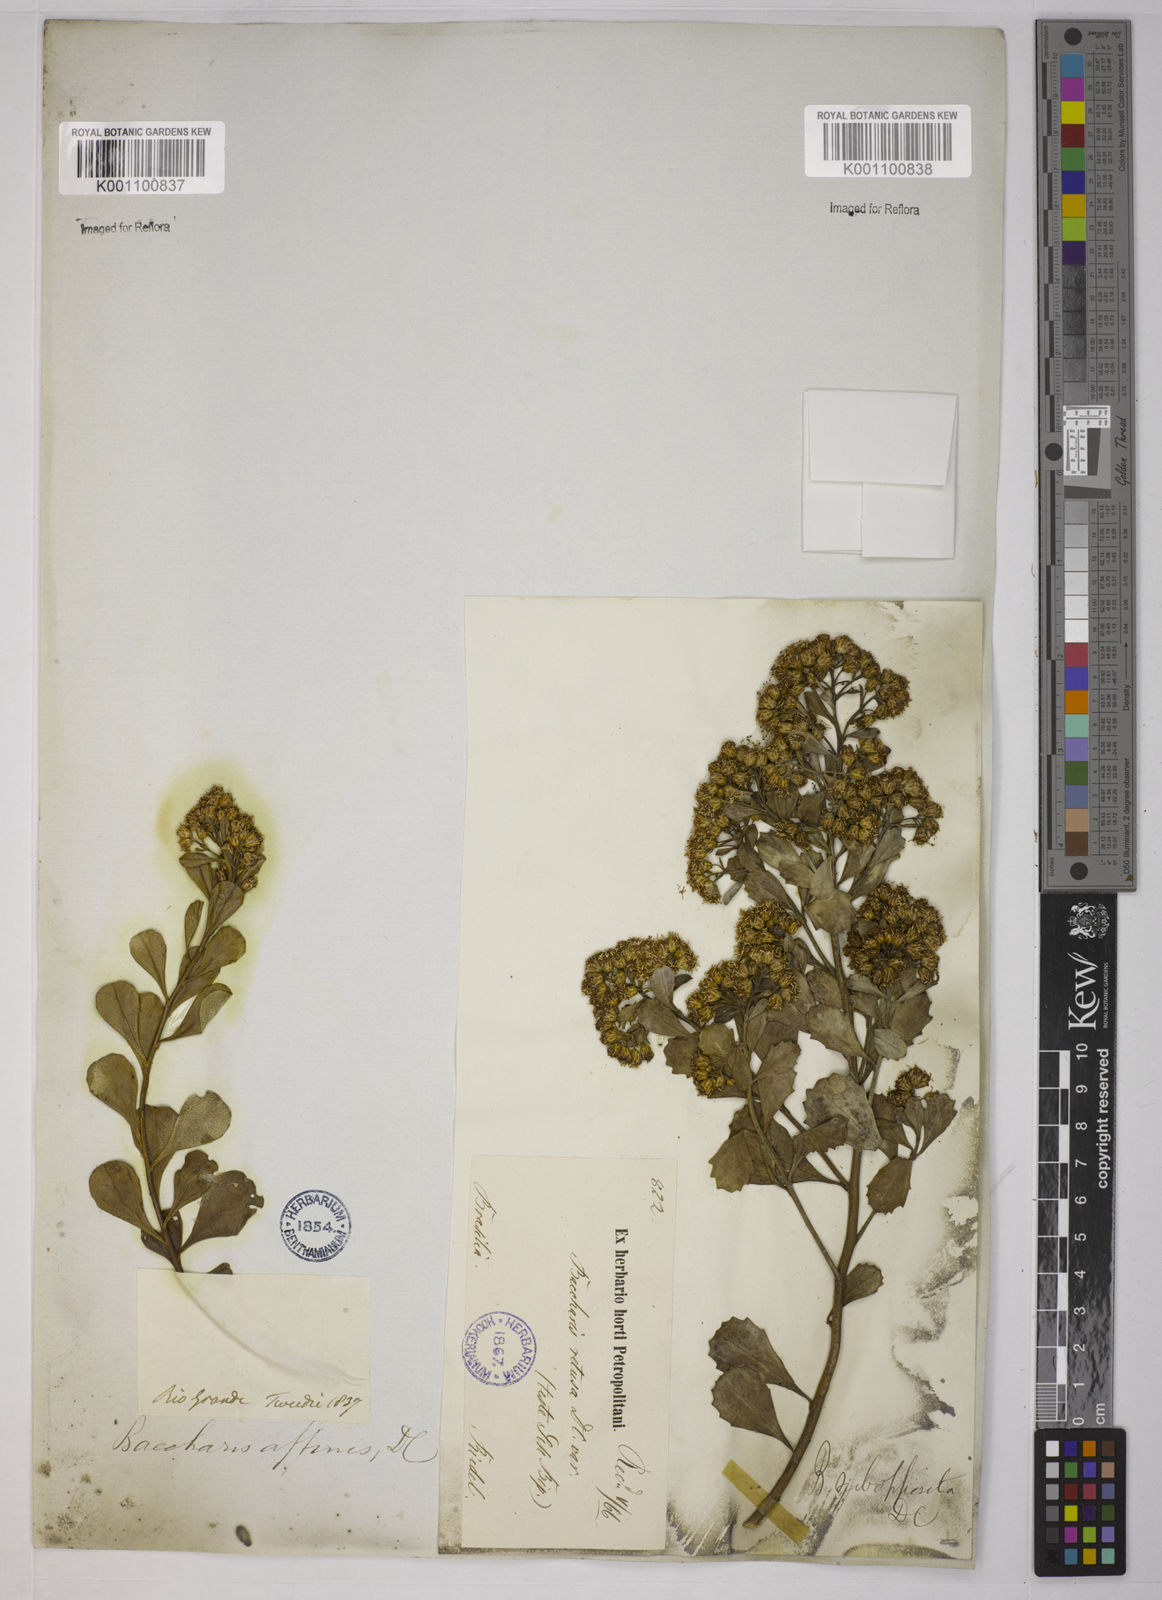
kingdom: Plantae
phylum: Tracheophyta
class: Magnoliopsida
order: Asterales
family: Asteraceae
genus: Baccharis
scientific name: Baccharis subopposita
